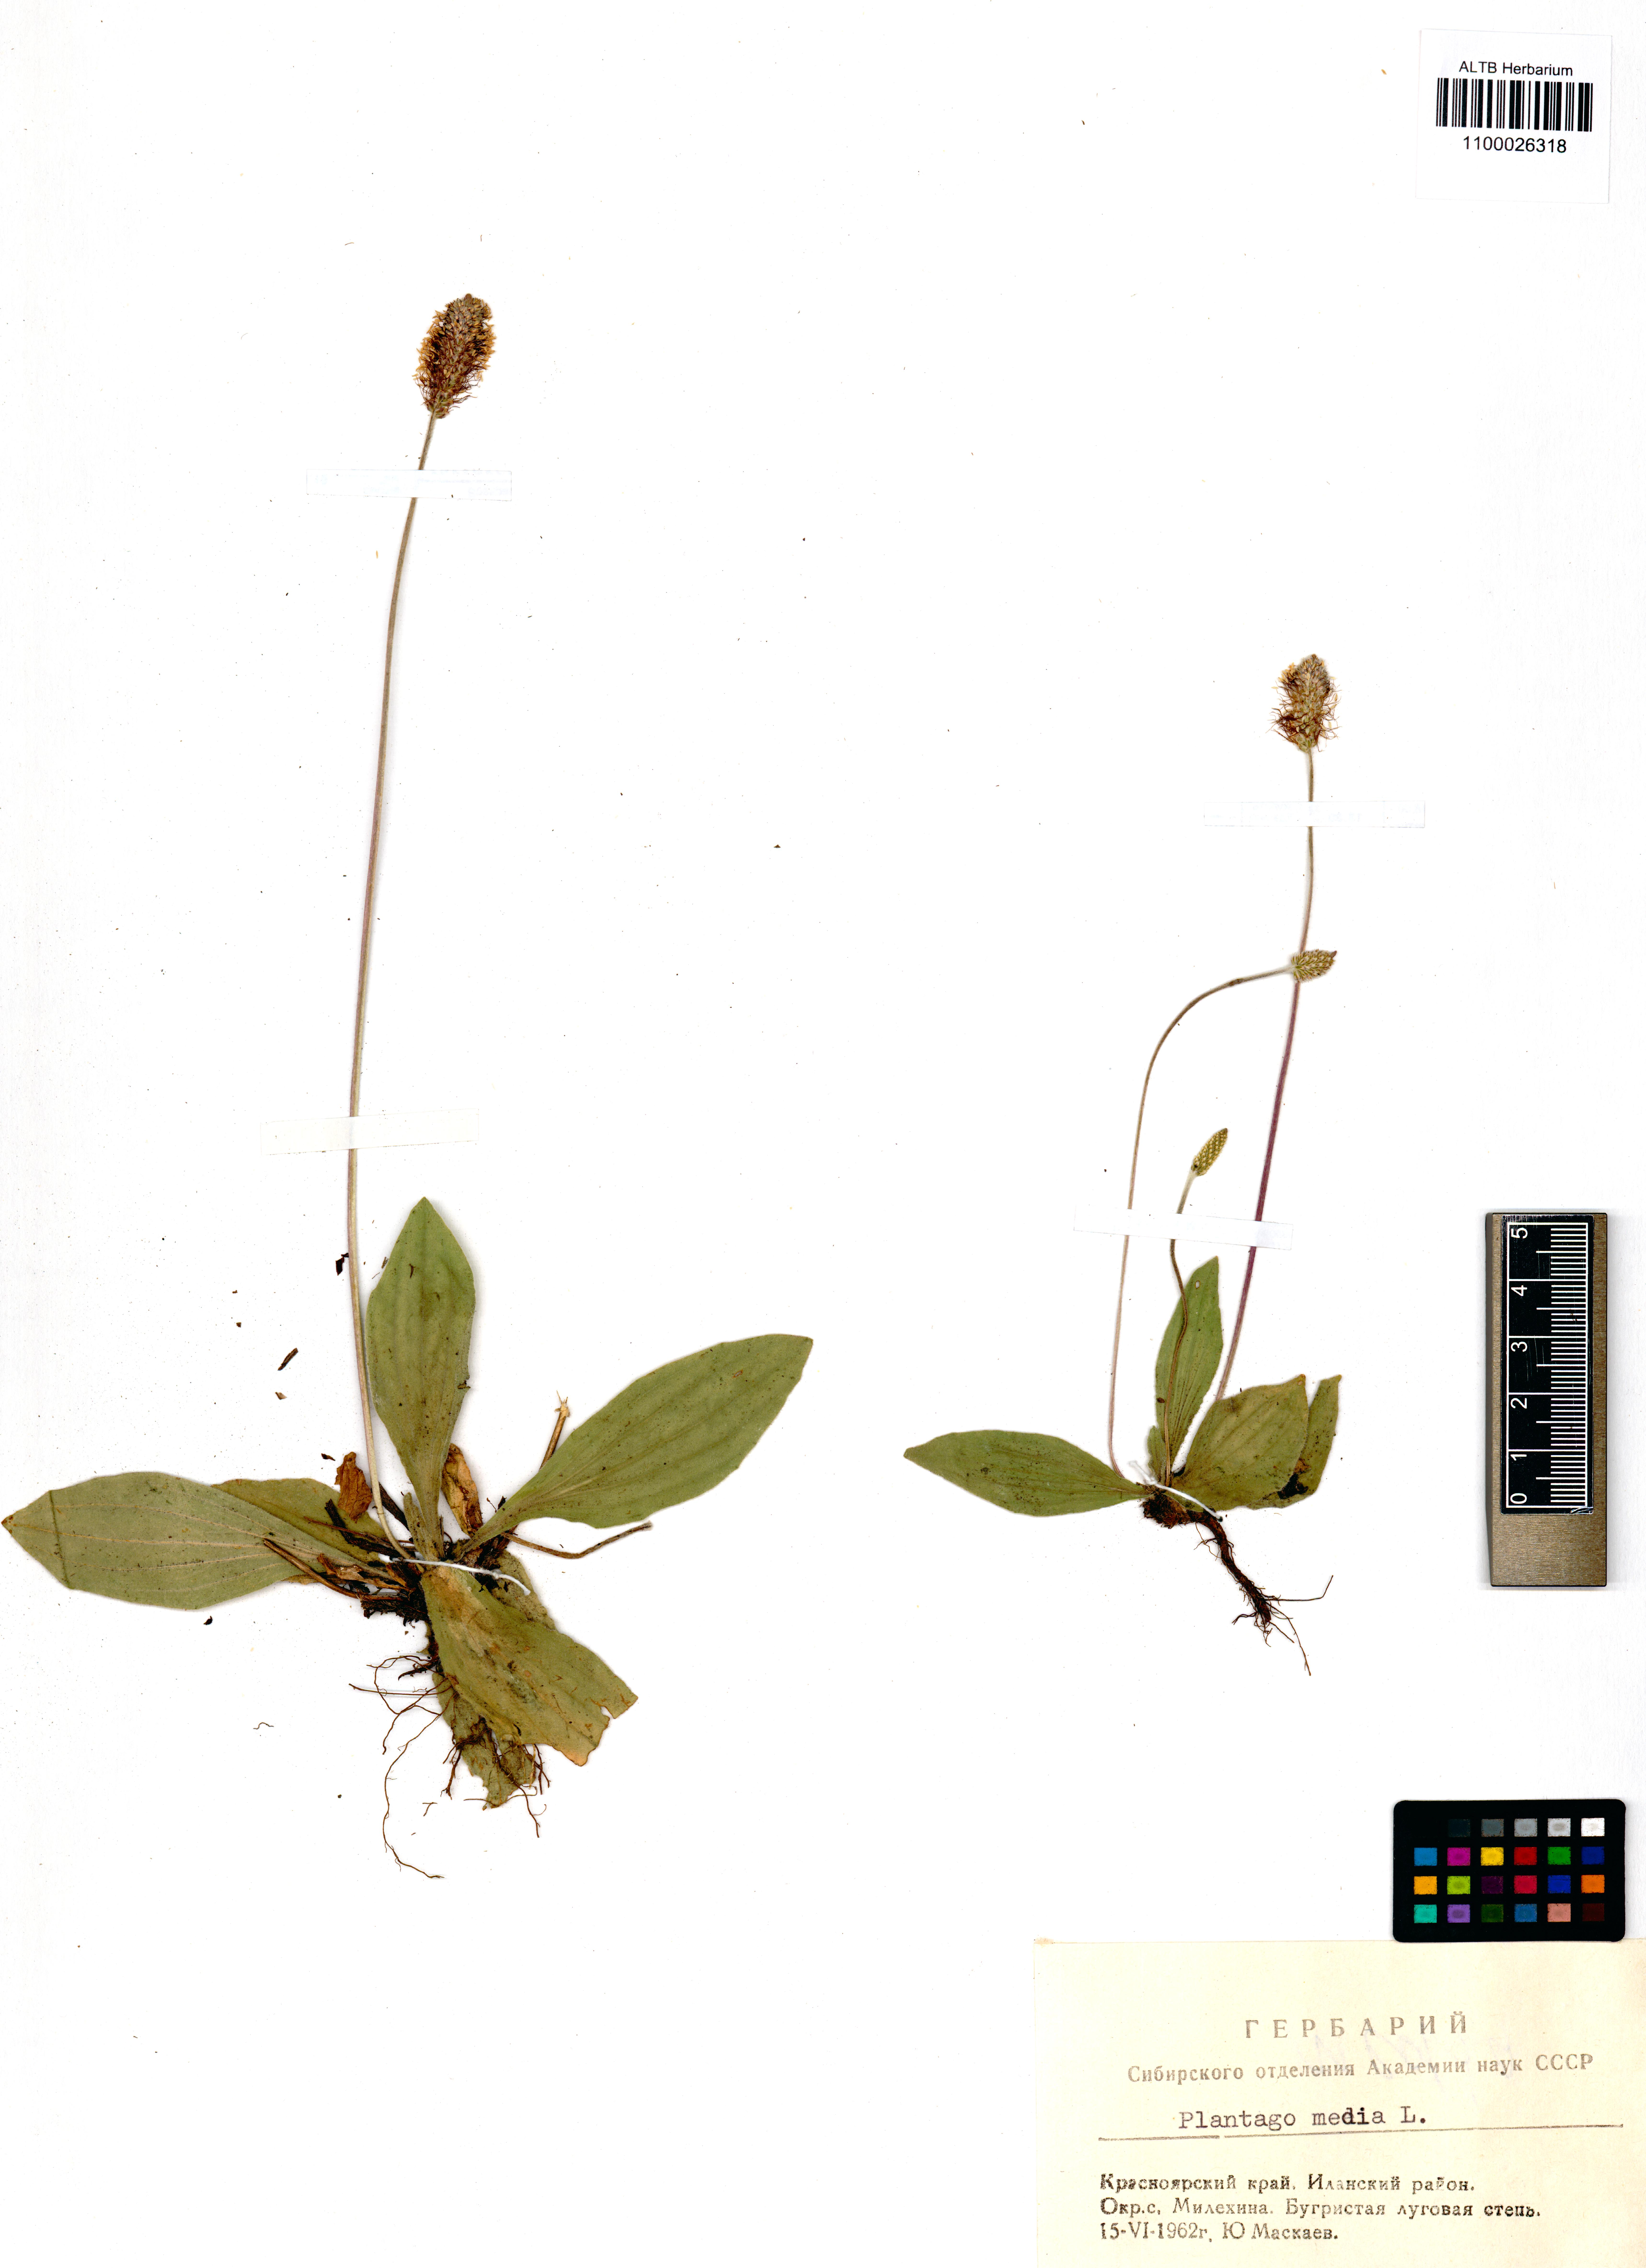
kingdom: Plantae
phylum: Tracheophyta
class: Magnoliopsida
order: Lamiales
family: Plantaginaceae
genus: Plantago
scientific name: Plantago media
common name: Hoary plantain
